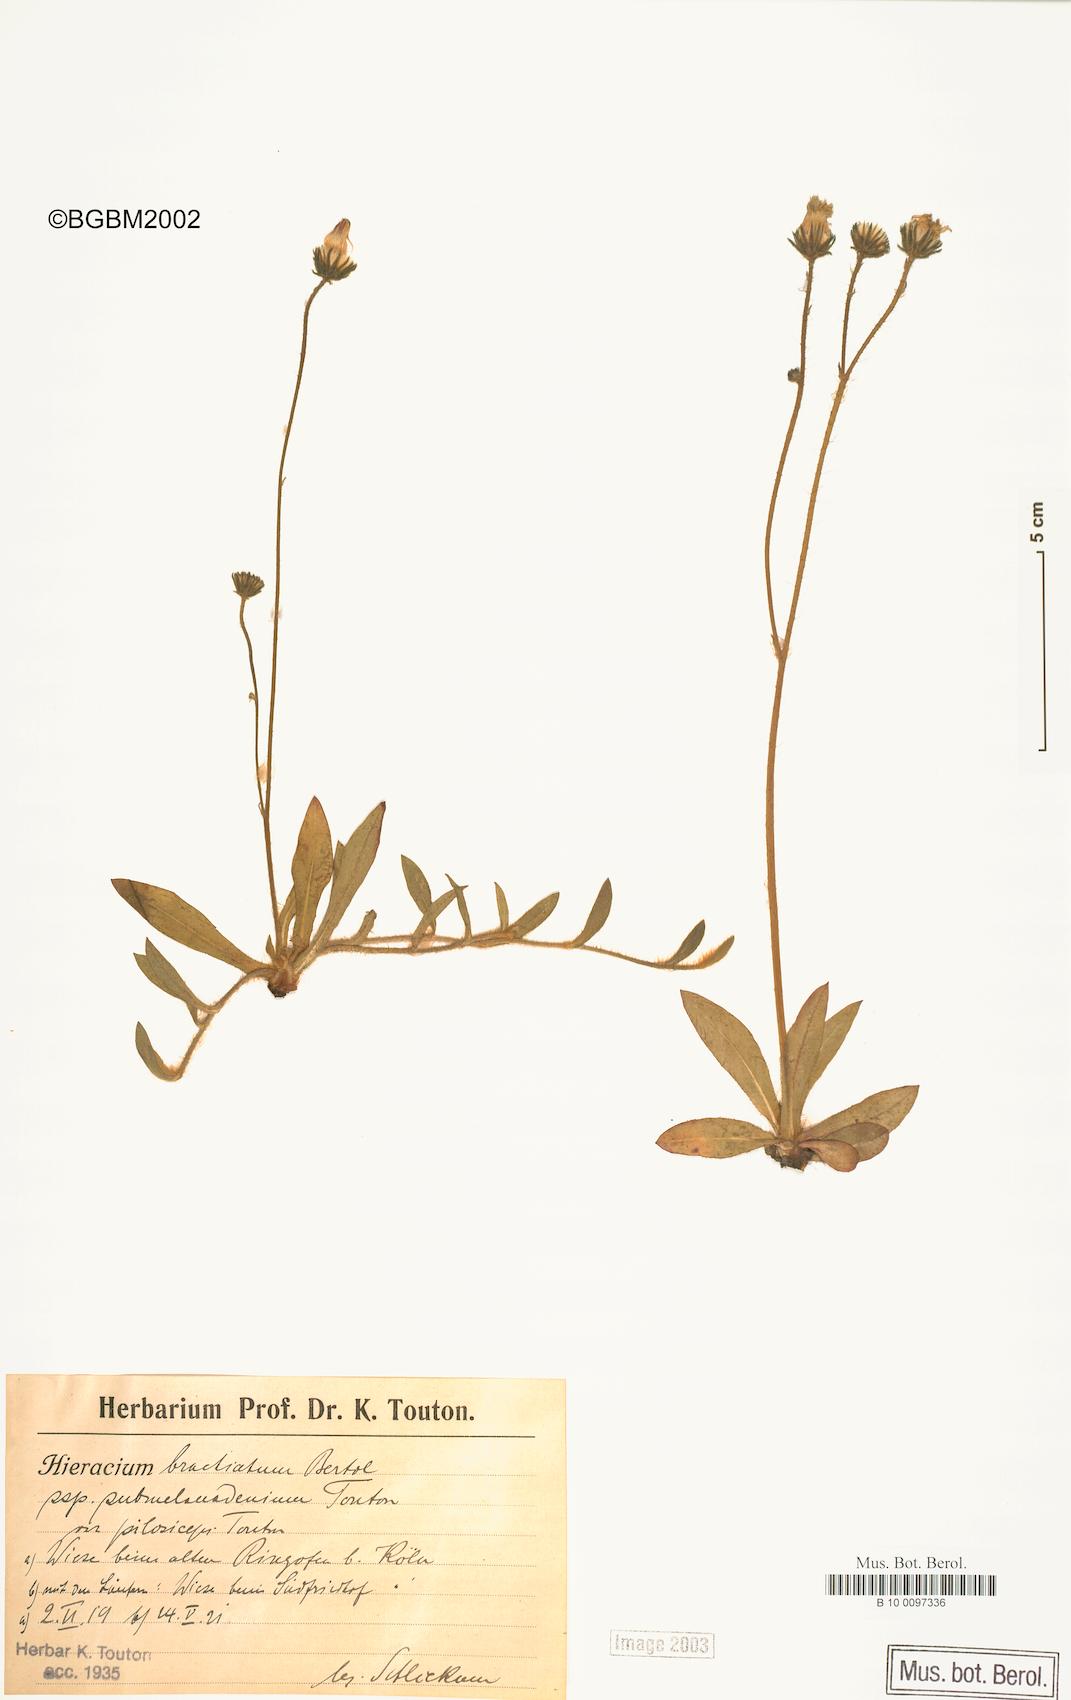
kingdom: Plantae
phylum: Tracheophyta
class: Magnoliopsida
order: Asterales
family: Asteraceae
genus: Pilosella
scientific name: Pilosella acutifolia
